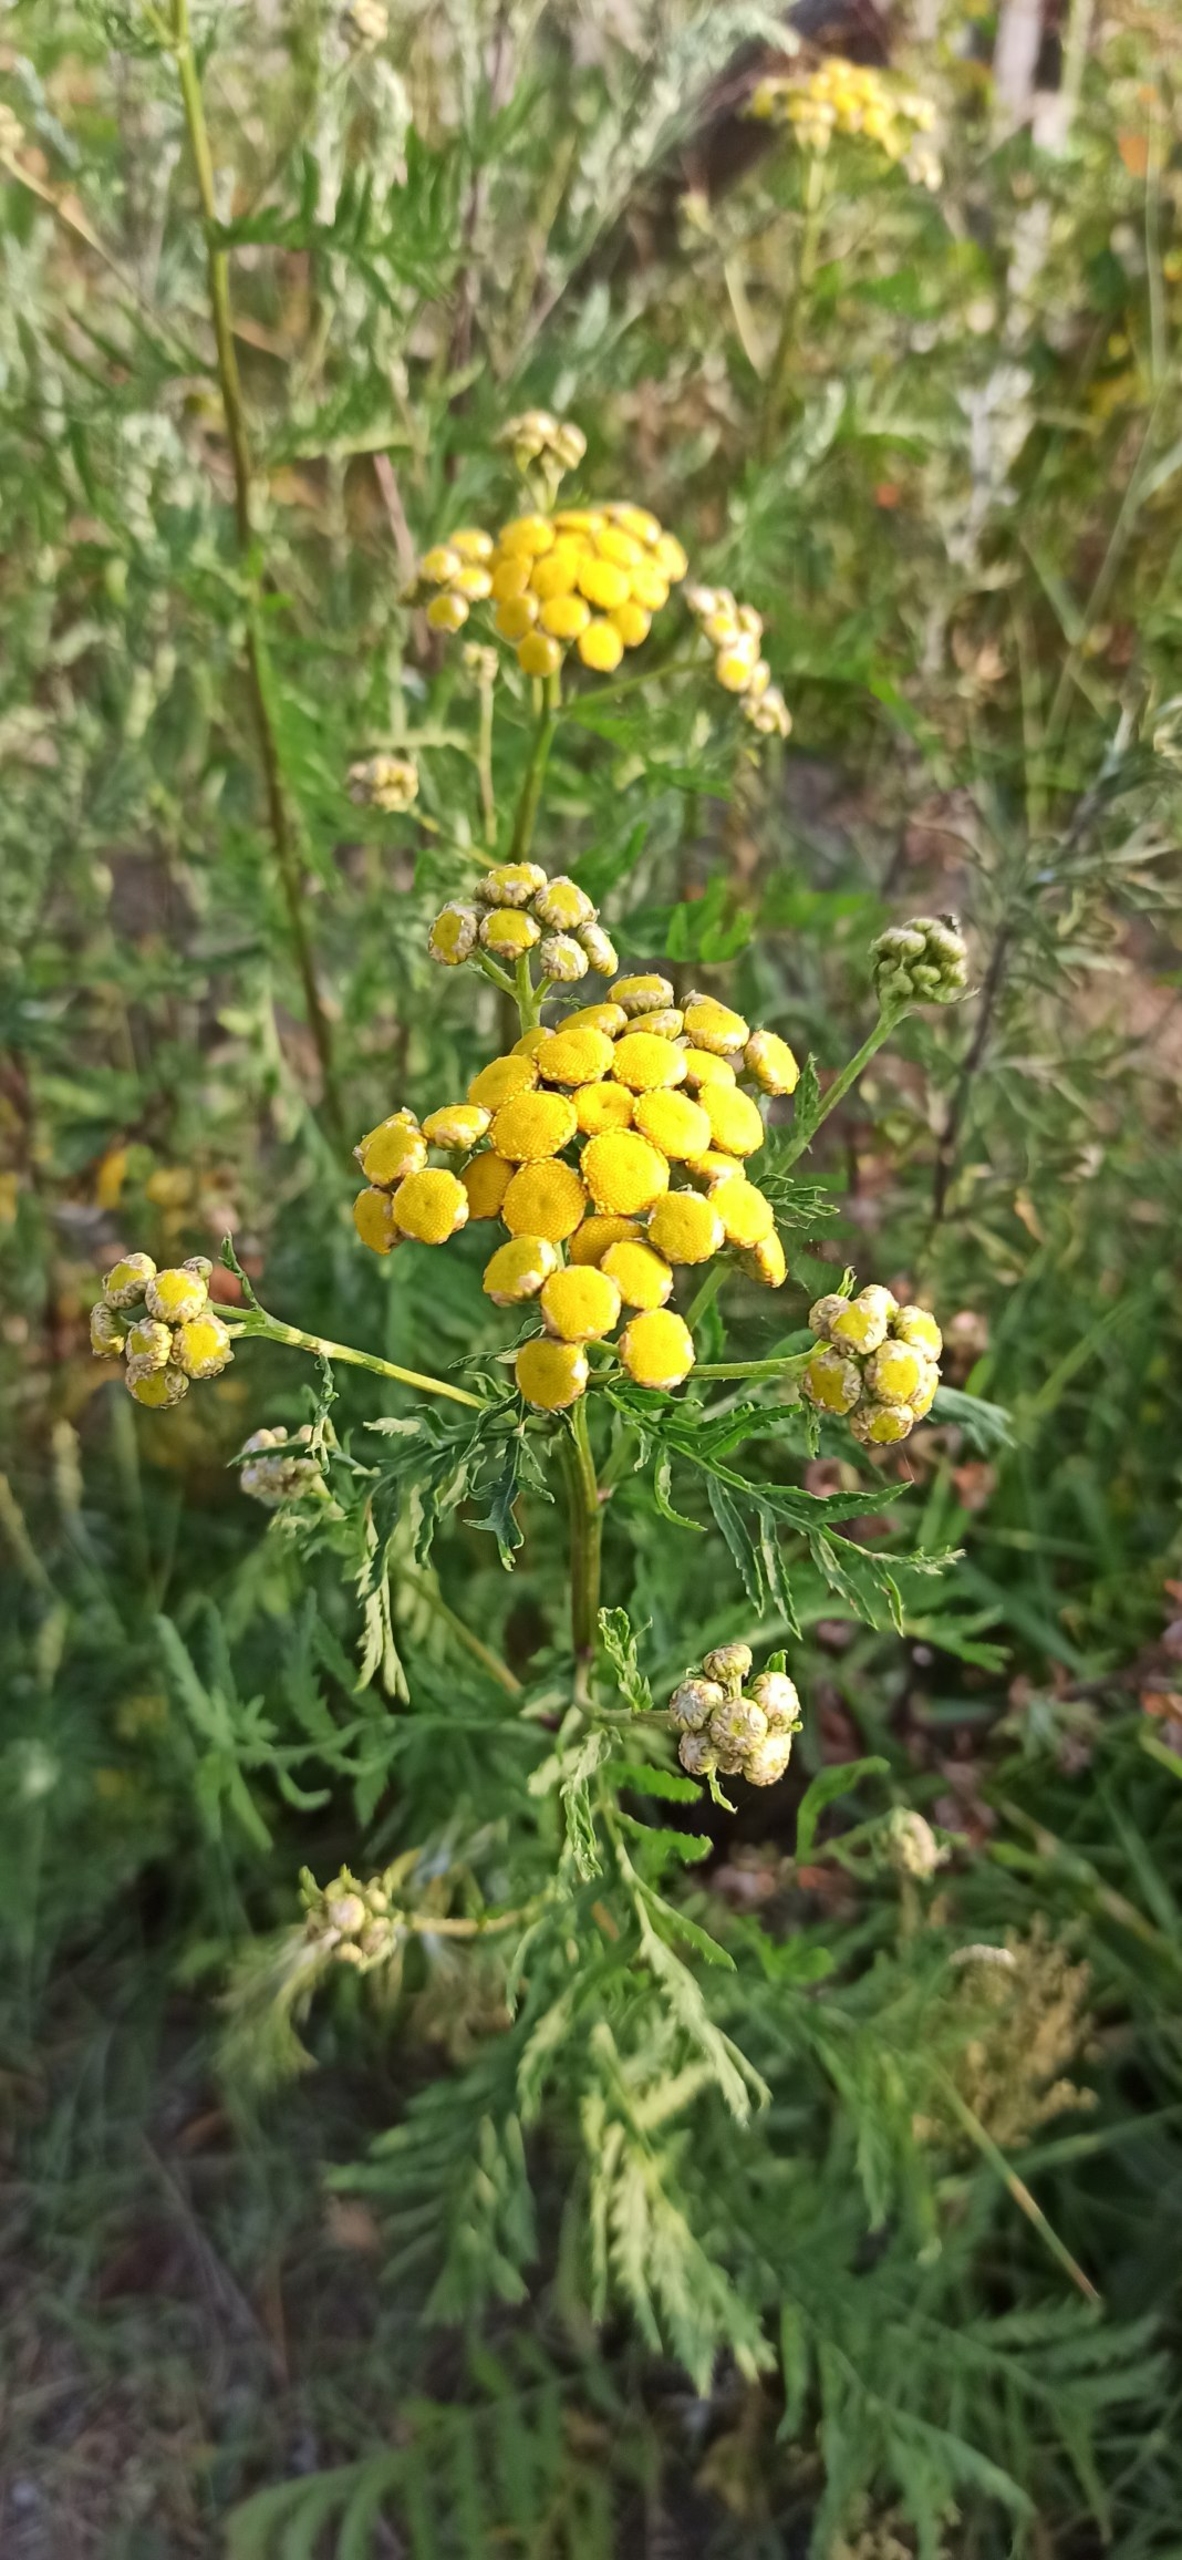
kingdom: Plantae
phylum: Tracheophyta
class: Magnoliopsida
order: Asterales
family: Asteraceae
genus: Tanacetum
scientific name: Tanacetum vulgare
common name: Rejnfan
